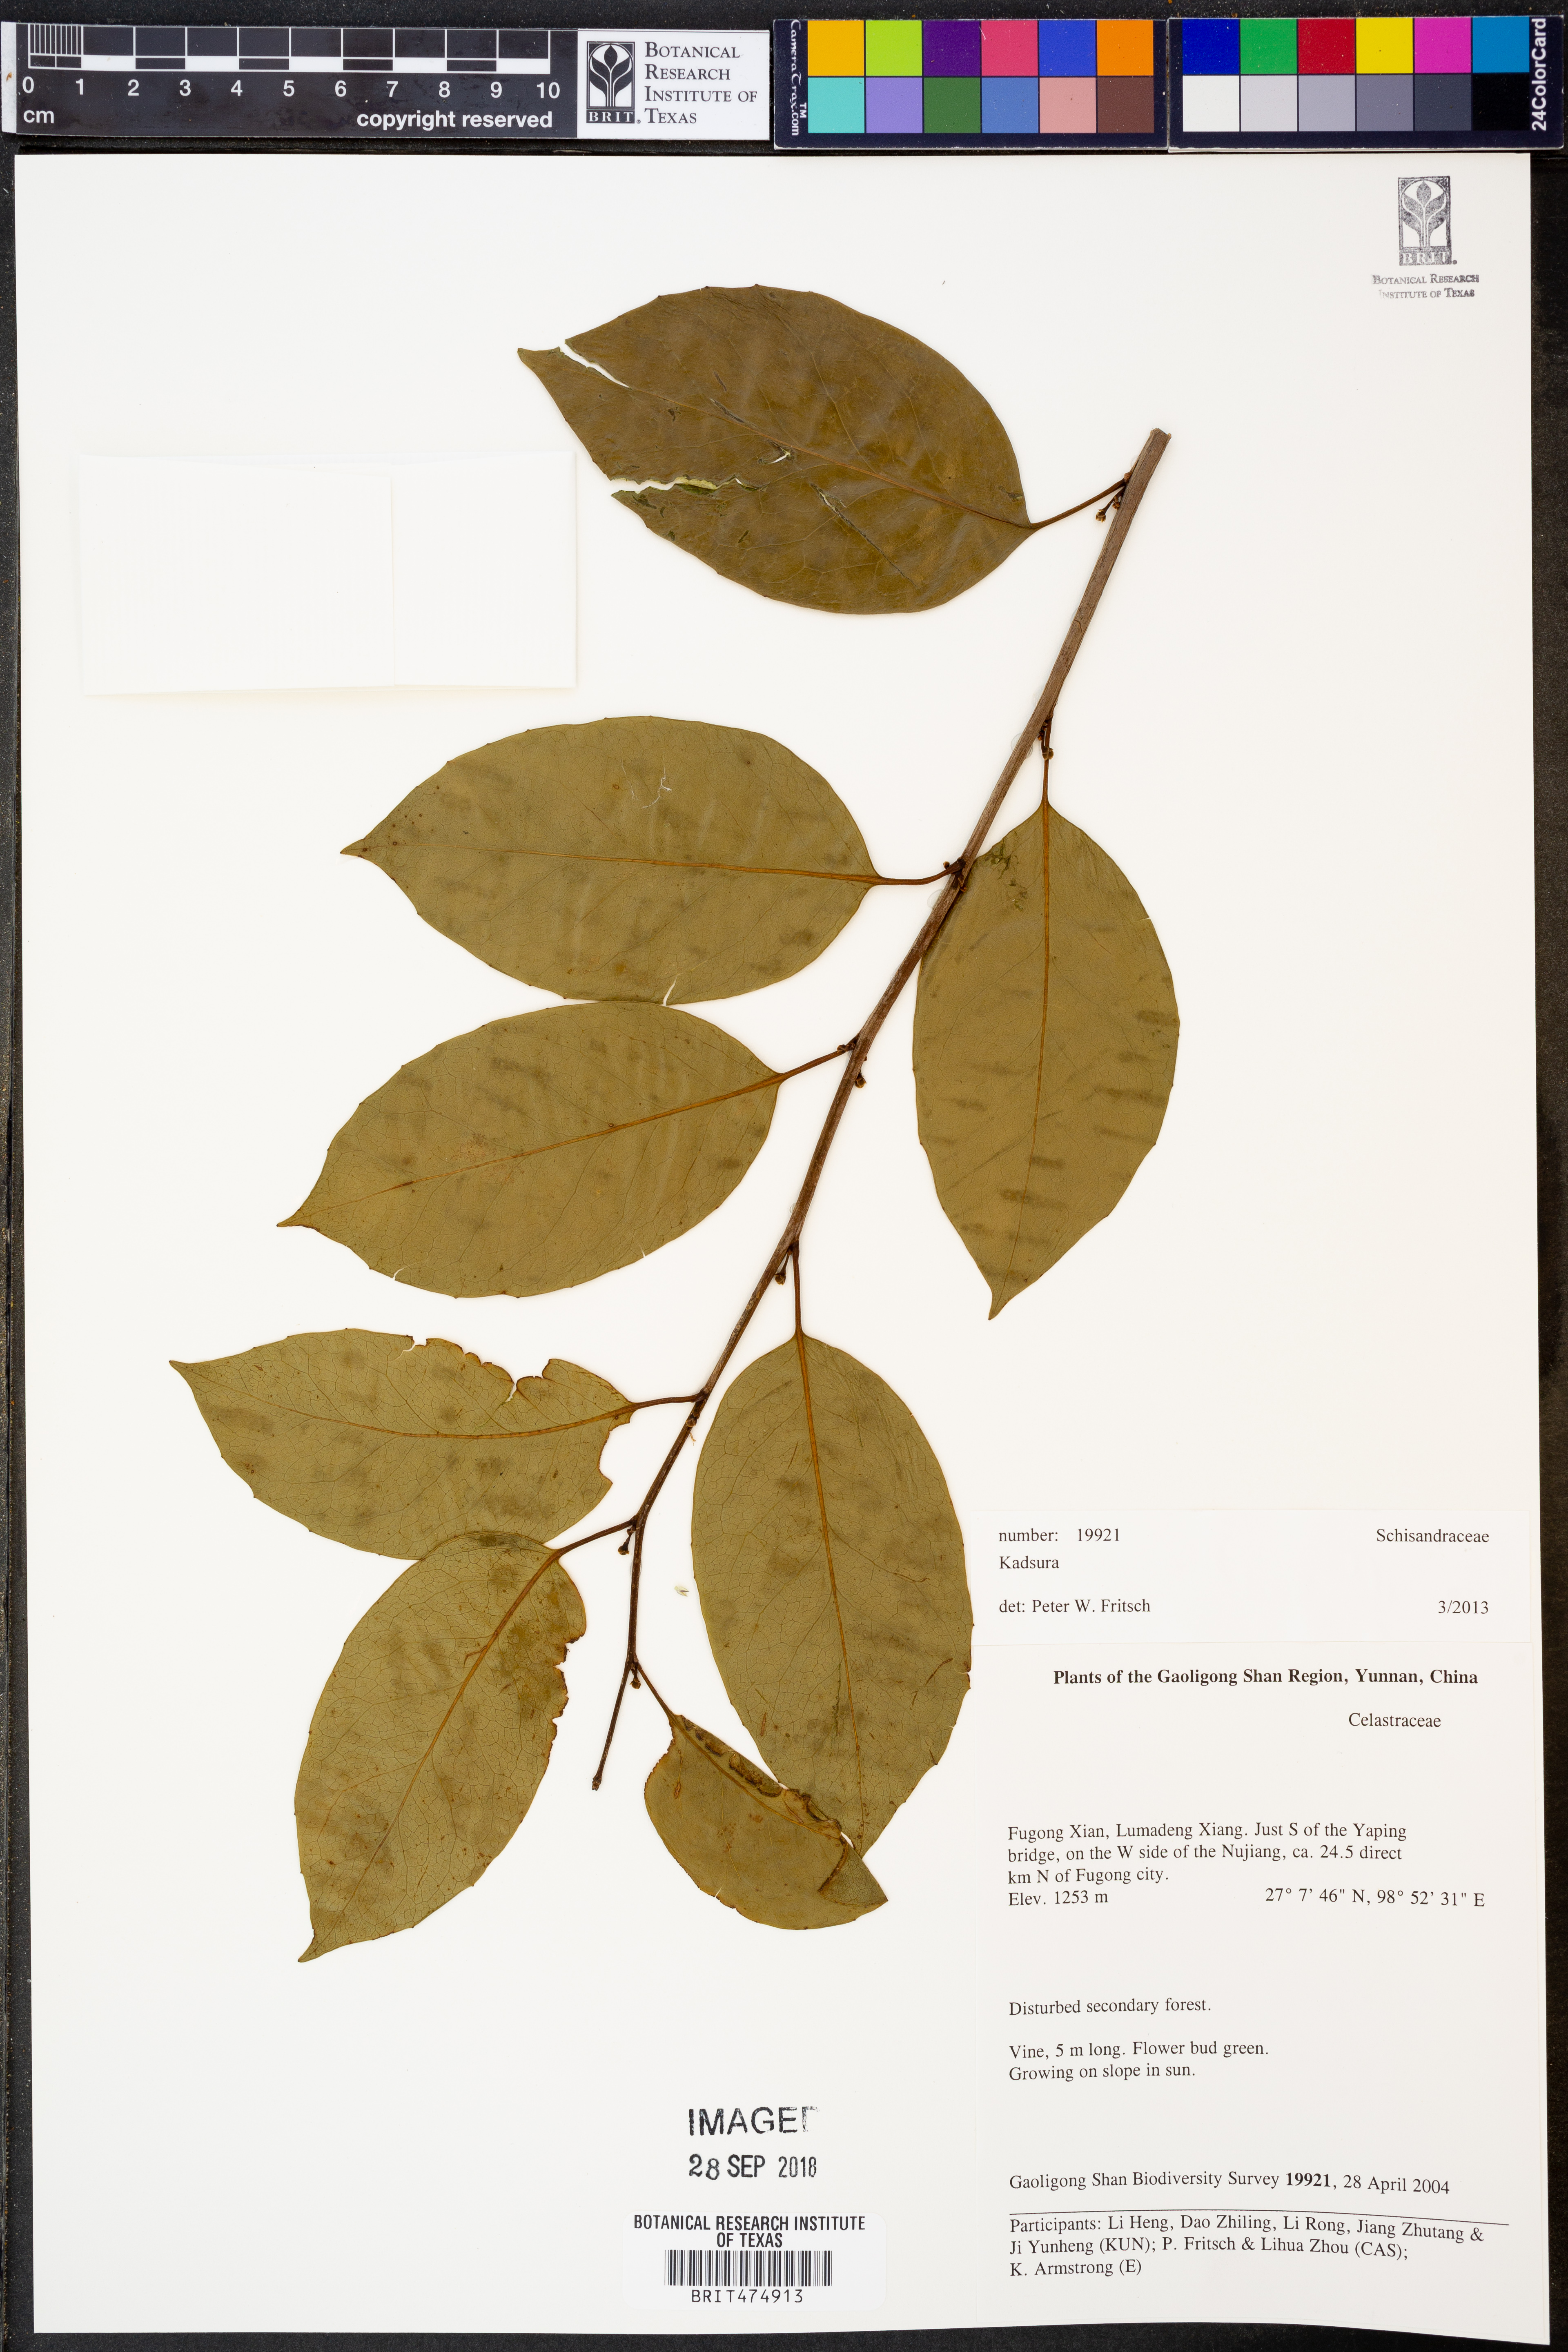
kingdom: Plantae
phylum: Tracheophyta
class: Magnoliopsida
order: Austrobaileyales
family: Schisandraceae
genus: Kadsura
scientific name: Kadsura
